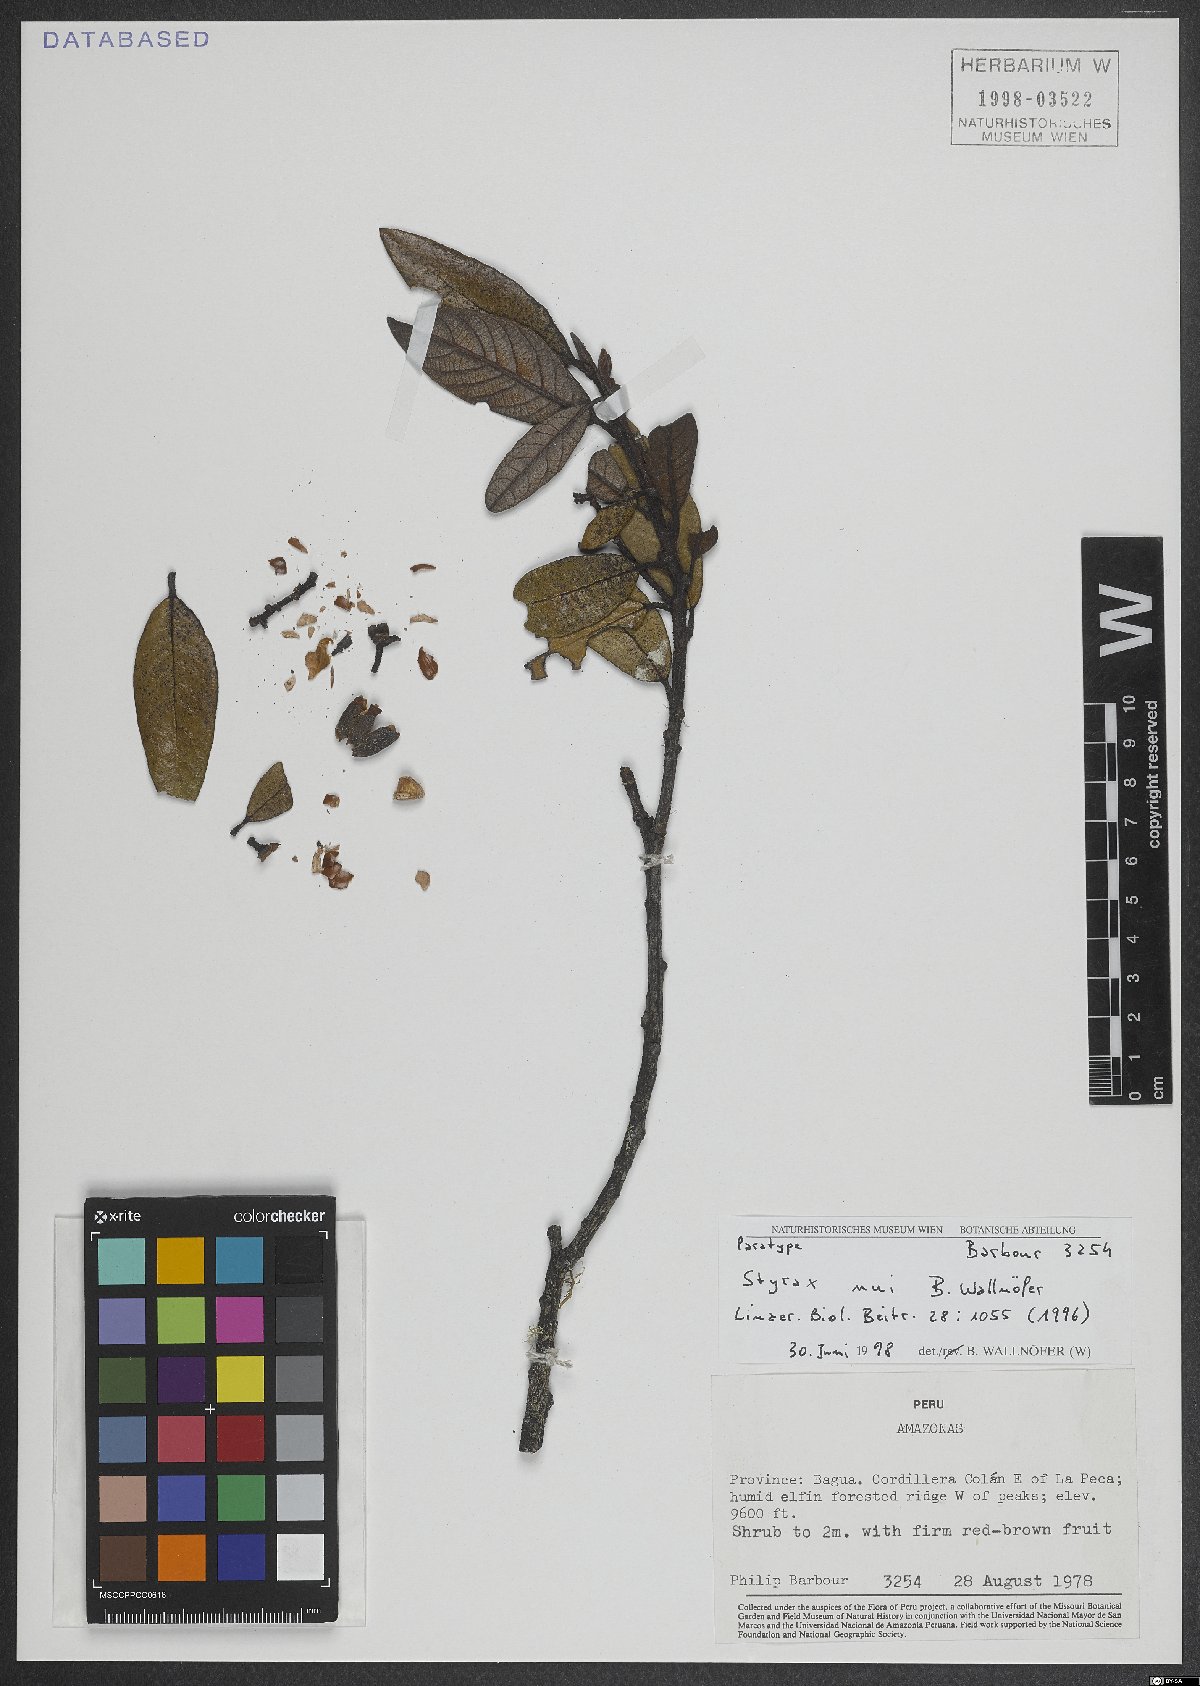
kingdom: Plantae
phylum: Tracheophyta
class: Magnoliopsida
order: Ericales
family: Styracaceae
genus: Styrax
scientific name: Styrax nui
